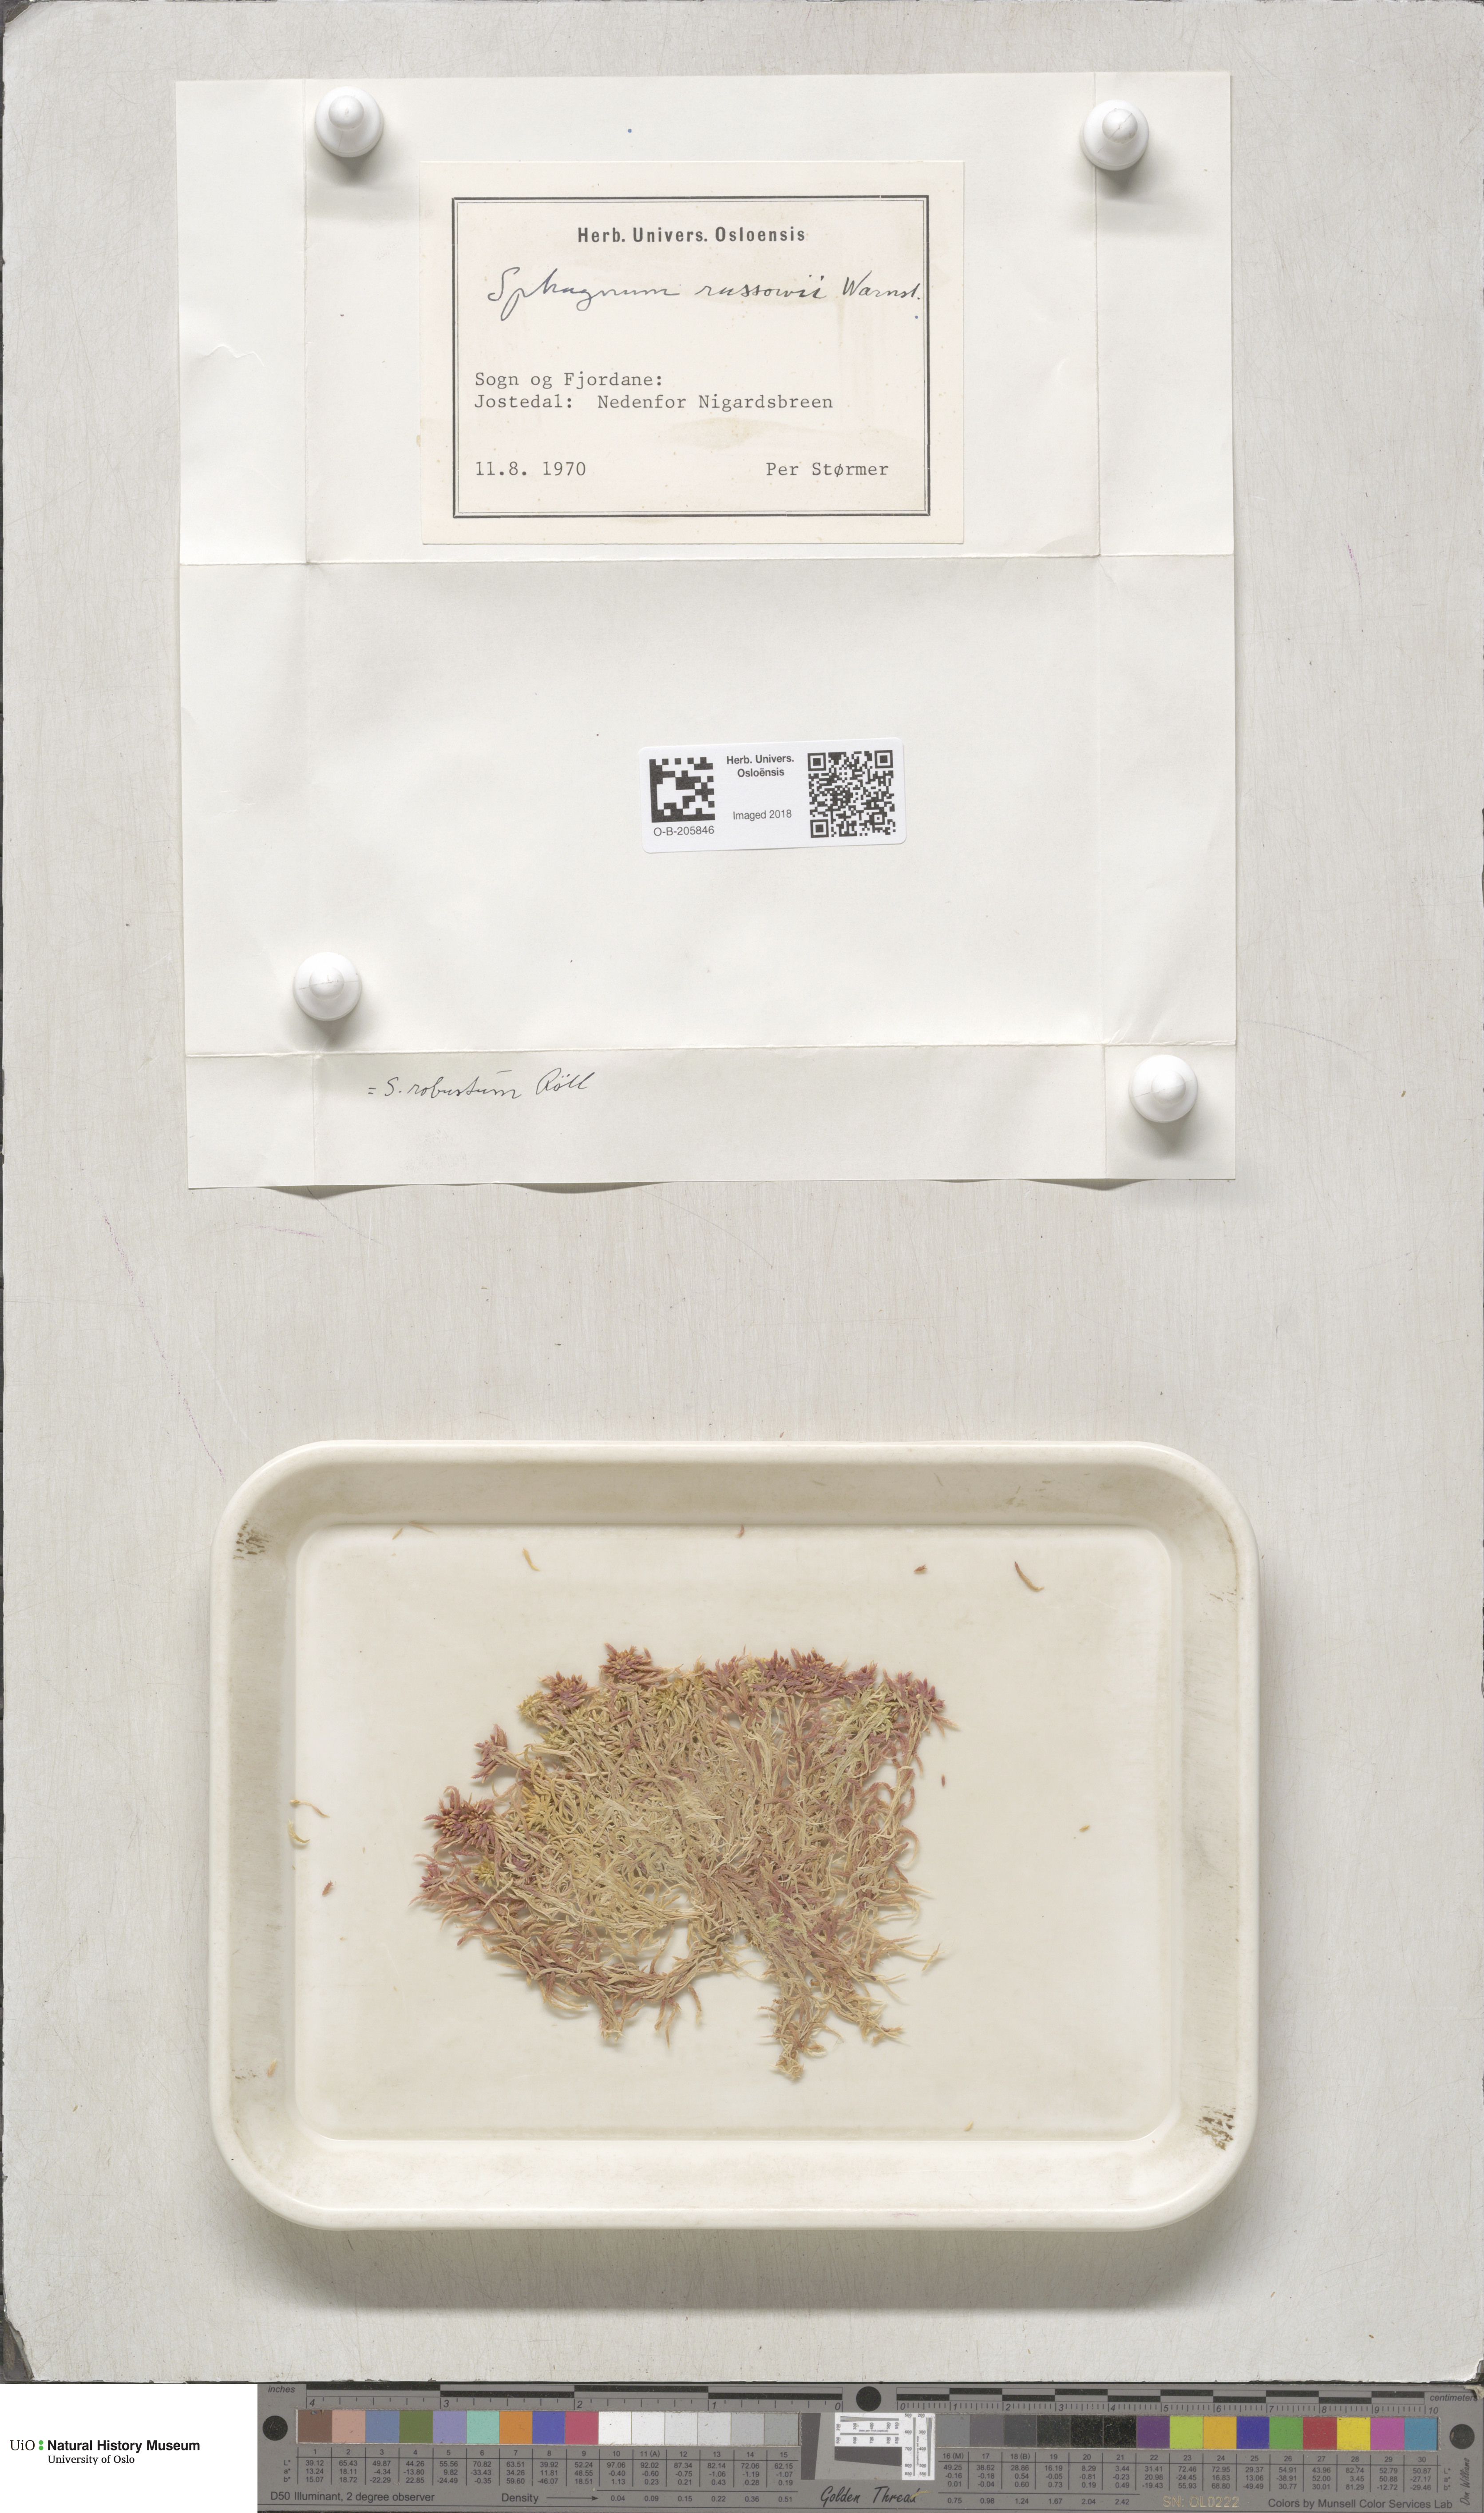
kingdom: Plantae
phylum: Bryophyta
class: Sphagnopsida
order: Sphagnales
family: Sphagnaceae
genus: Sphagnum
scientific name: Sphagnum russowii
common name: Russow's peat moss
